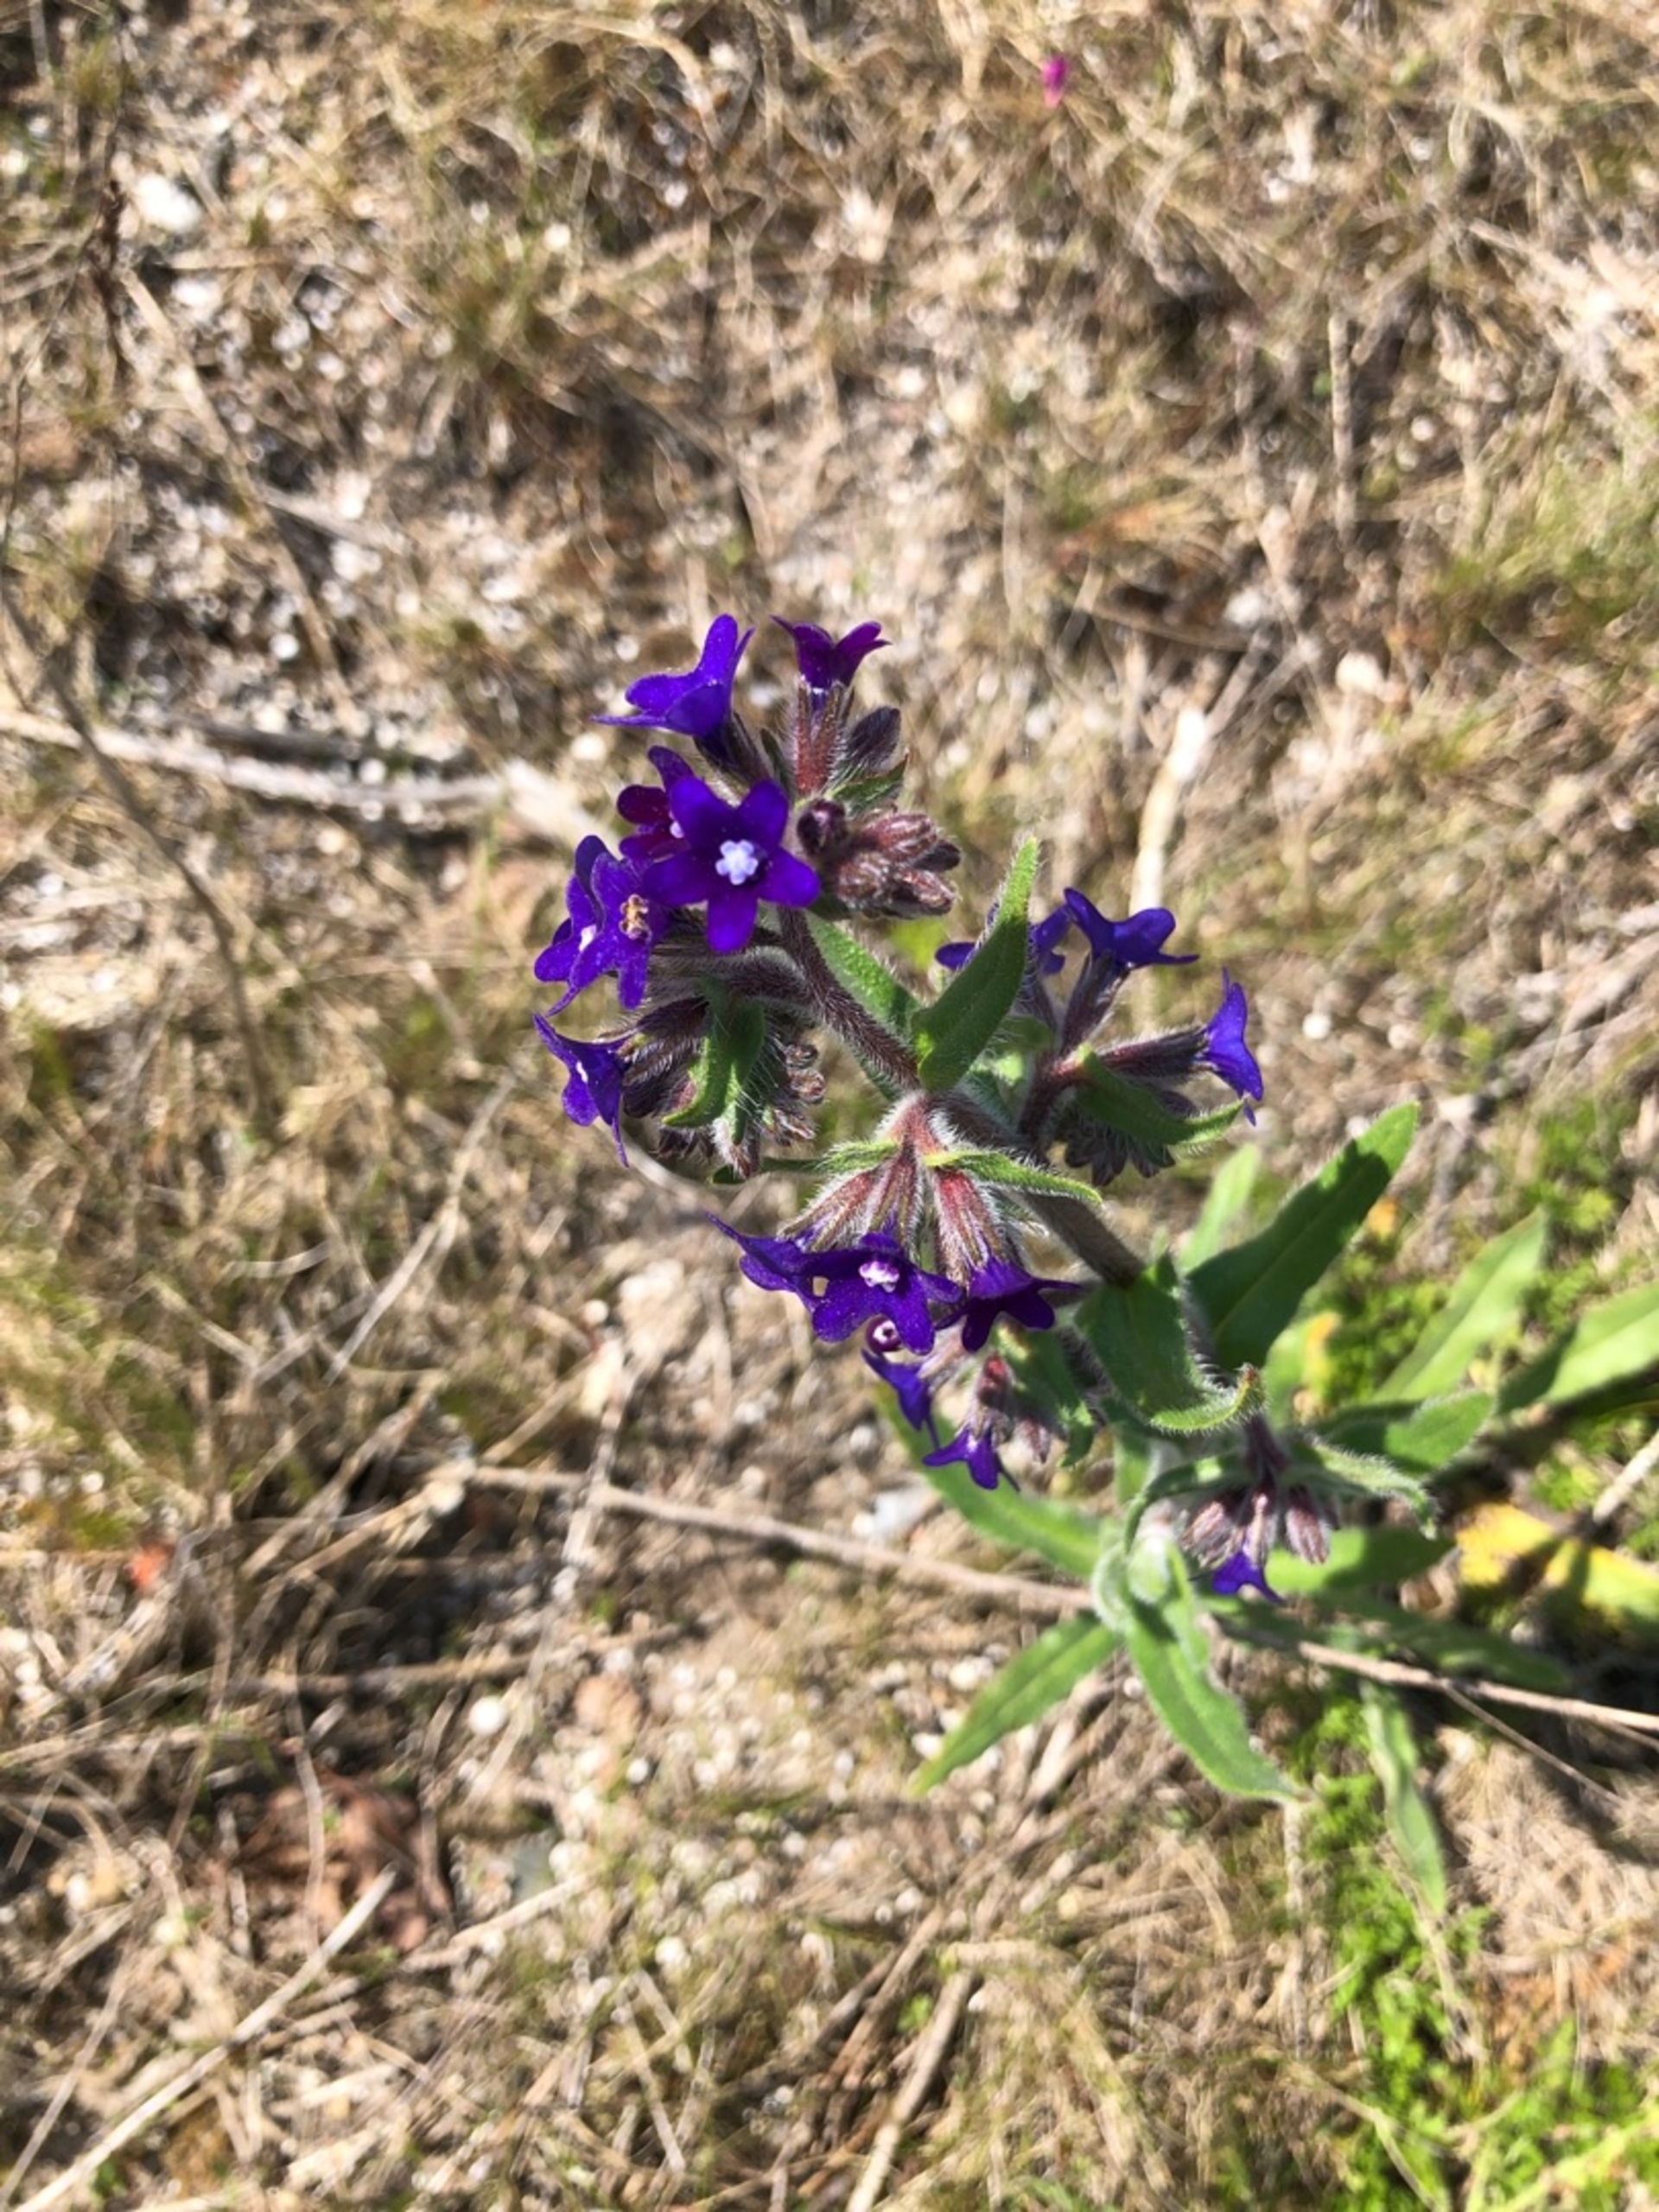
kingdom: Plantae
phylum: Tracheophyta
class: Magnoliopsida
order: Boraginales
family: Boraginaceae
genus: Anchusa
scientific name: Anchusa officinalis
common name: Læge-oksetunge
